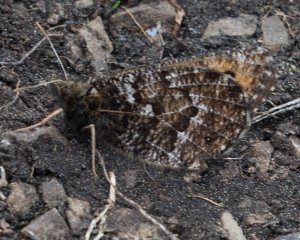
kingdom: Animalia
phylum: Arthropoda
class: Insecta
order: Lepidoptera
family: Nymphalidae
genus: Oeneis
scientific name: Oeneis chryxus
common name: Chryxus Arctic
